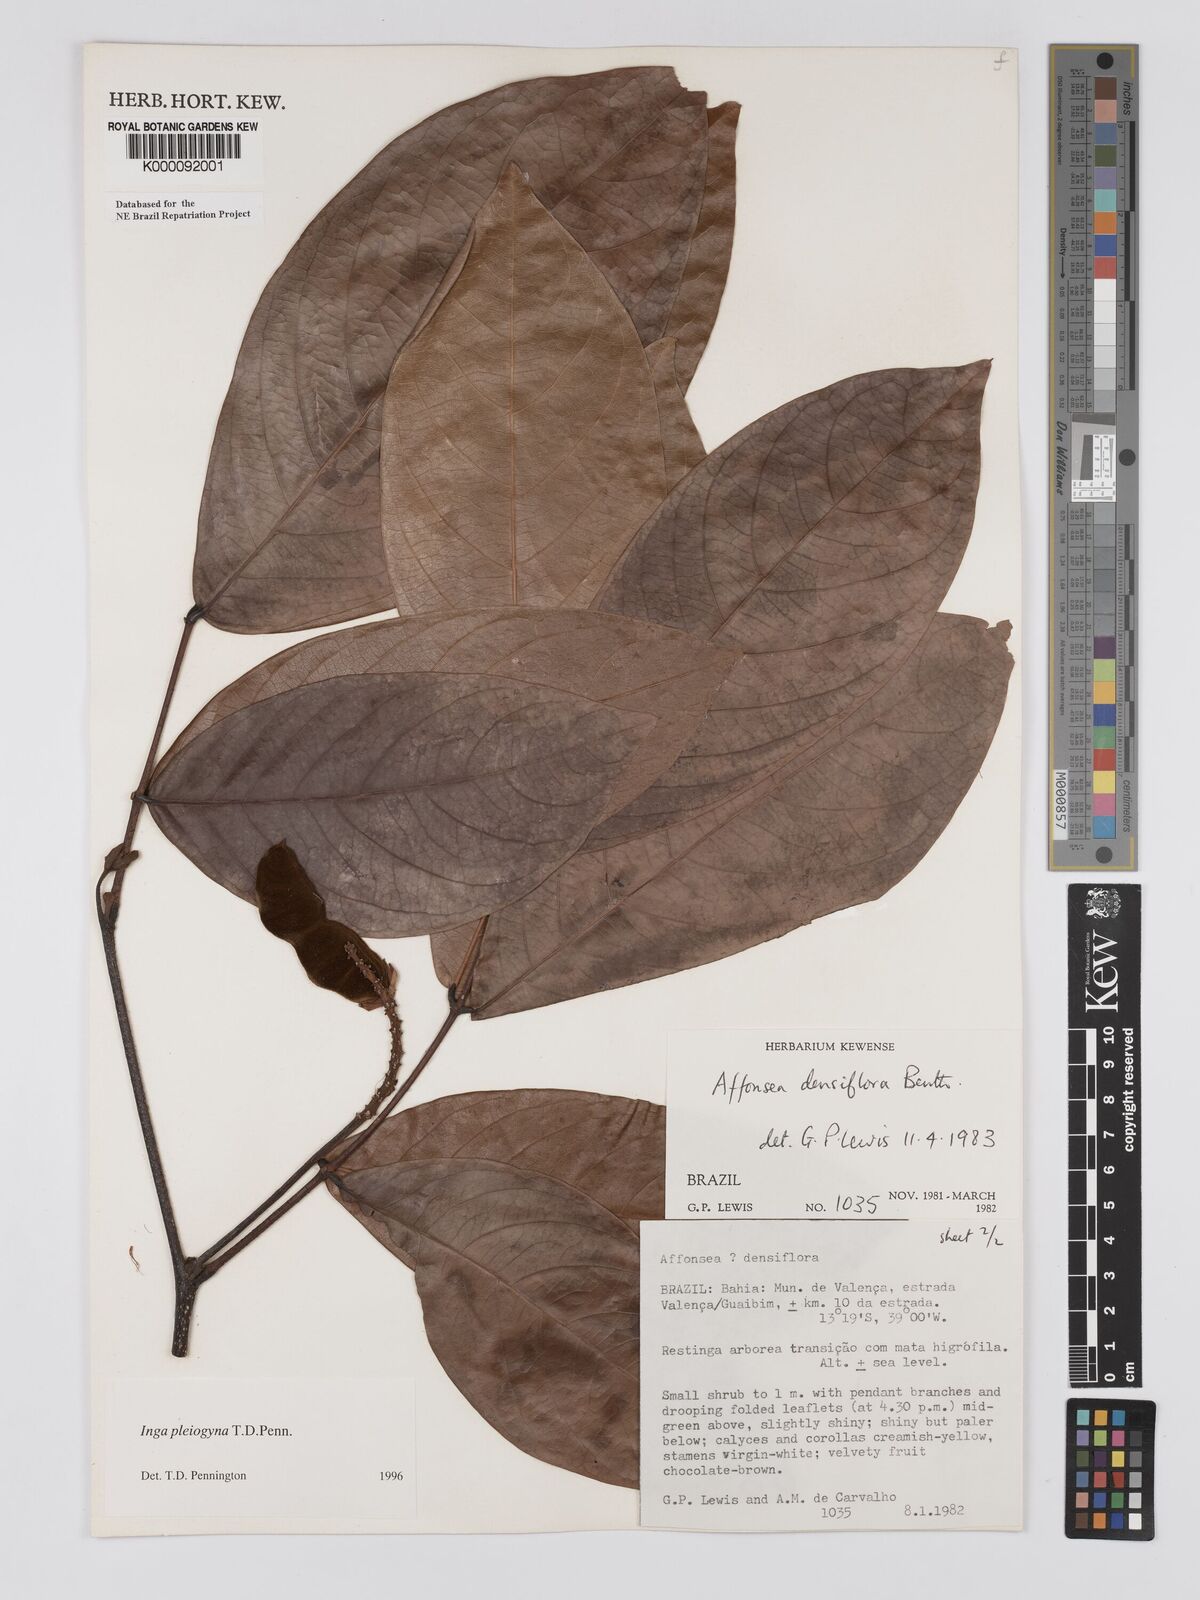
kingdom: Plantae
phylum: Tracheophyta
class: Magnoliopsida
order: Fabales
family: Fabaceae
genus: Inga
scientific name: Inga pleiogyna
